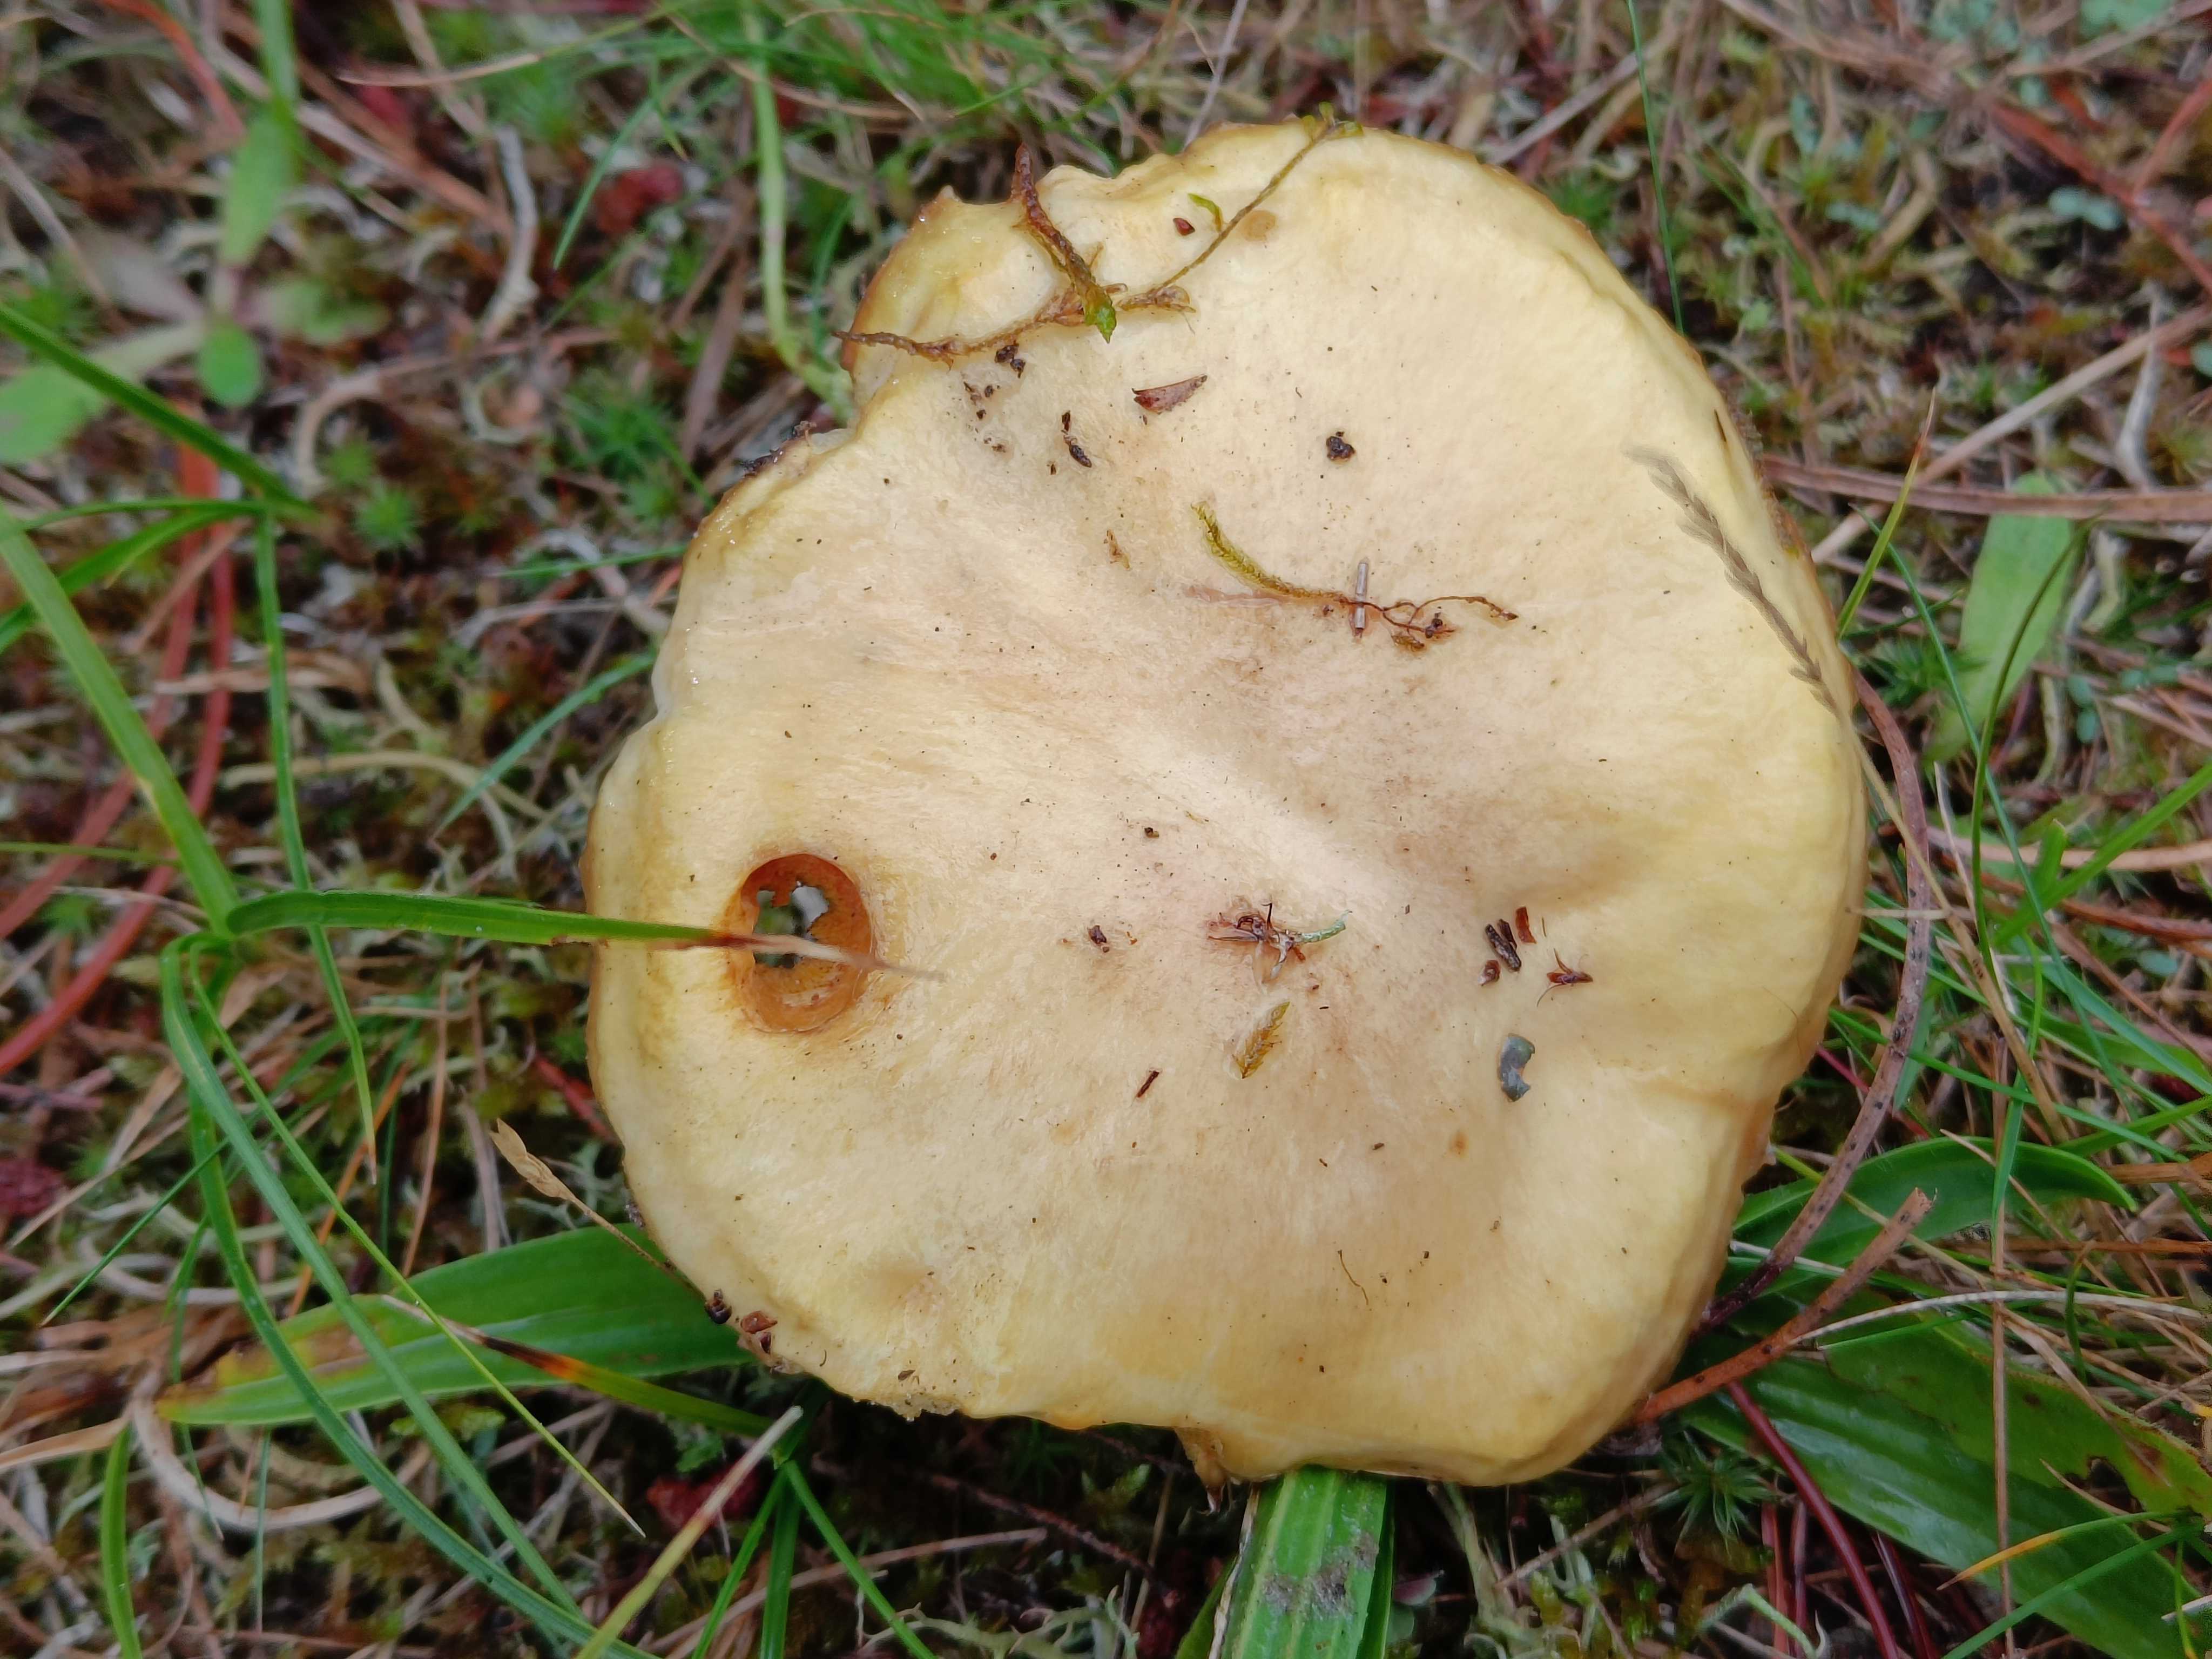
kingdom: Fungi
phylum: Basidiomycota
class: Agaricomycetes
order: Boletales
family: Suillaceae
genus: Suillus
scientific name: Suillus luteus
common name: brungul slimrørhat
